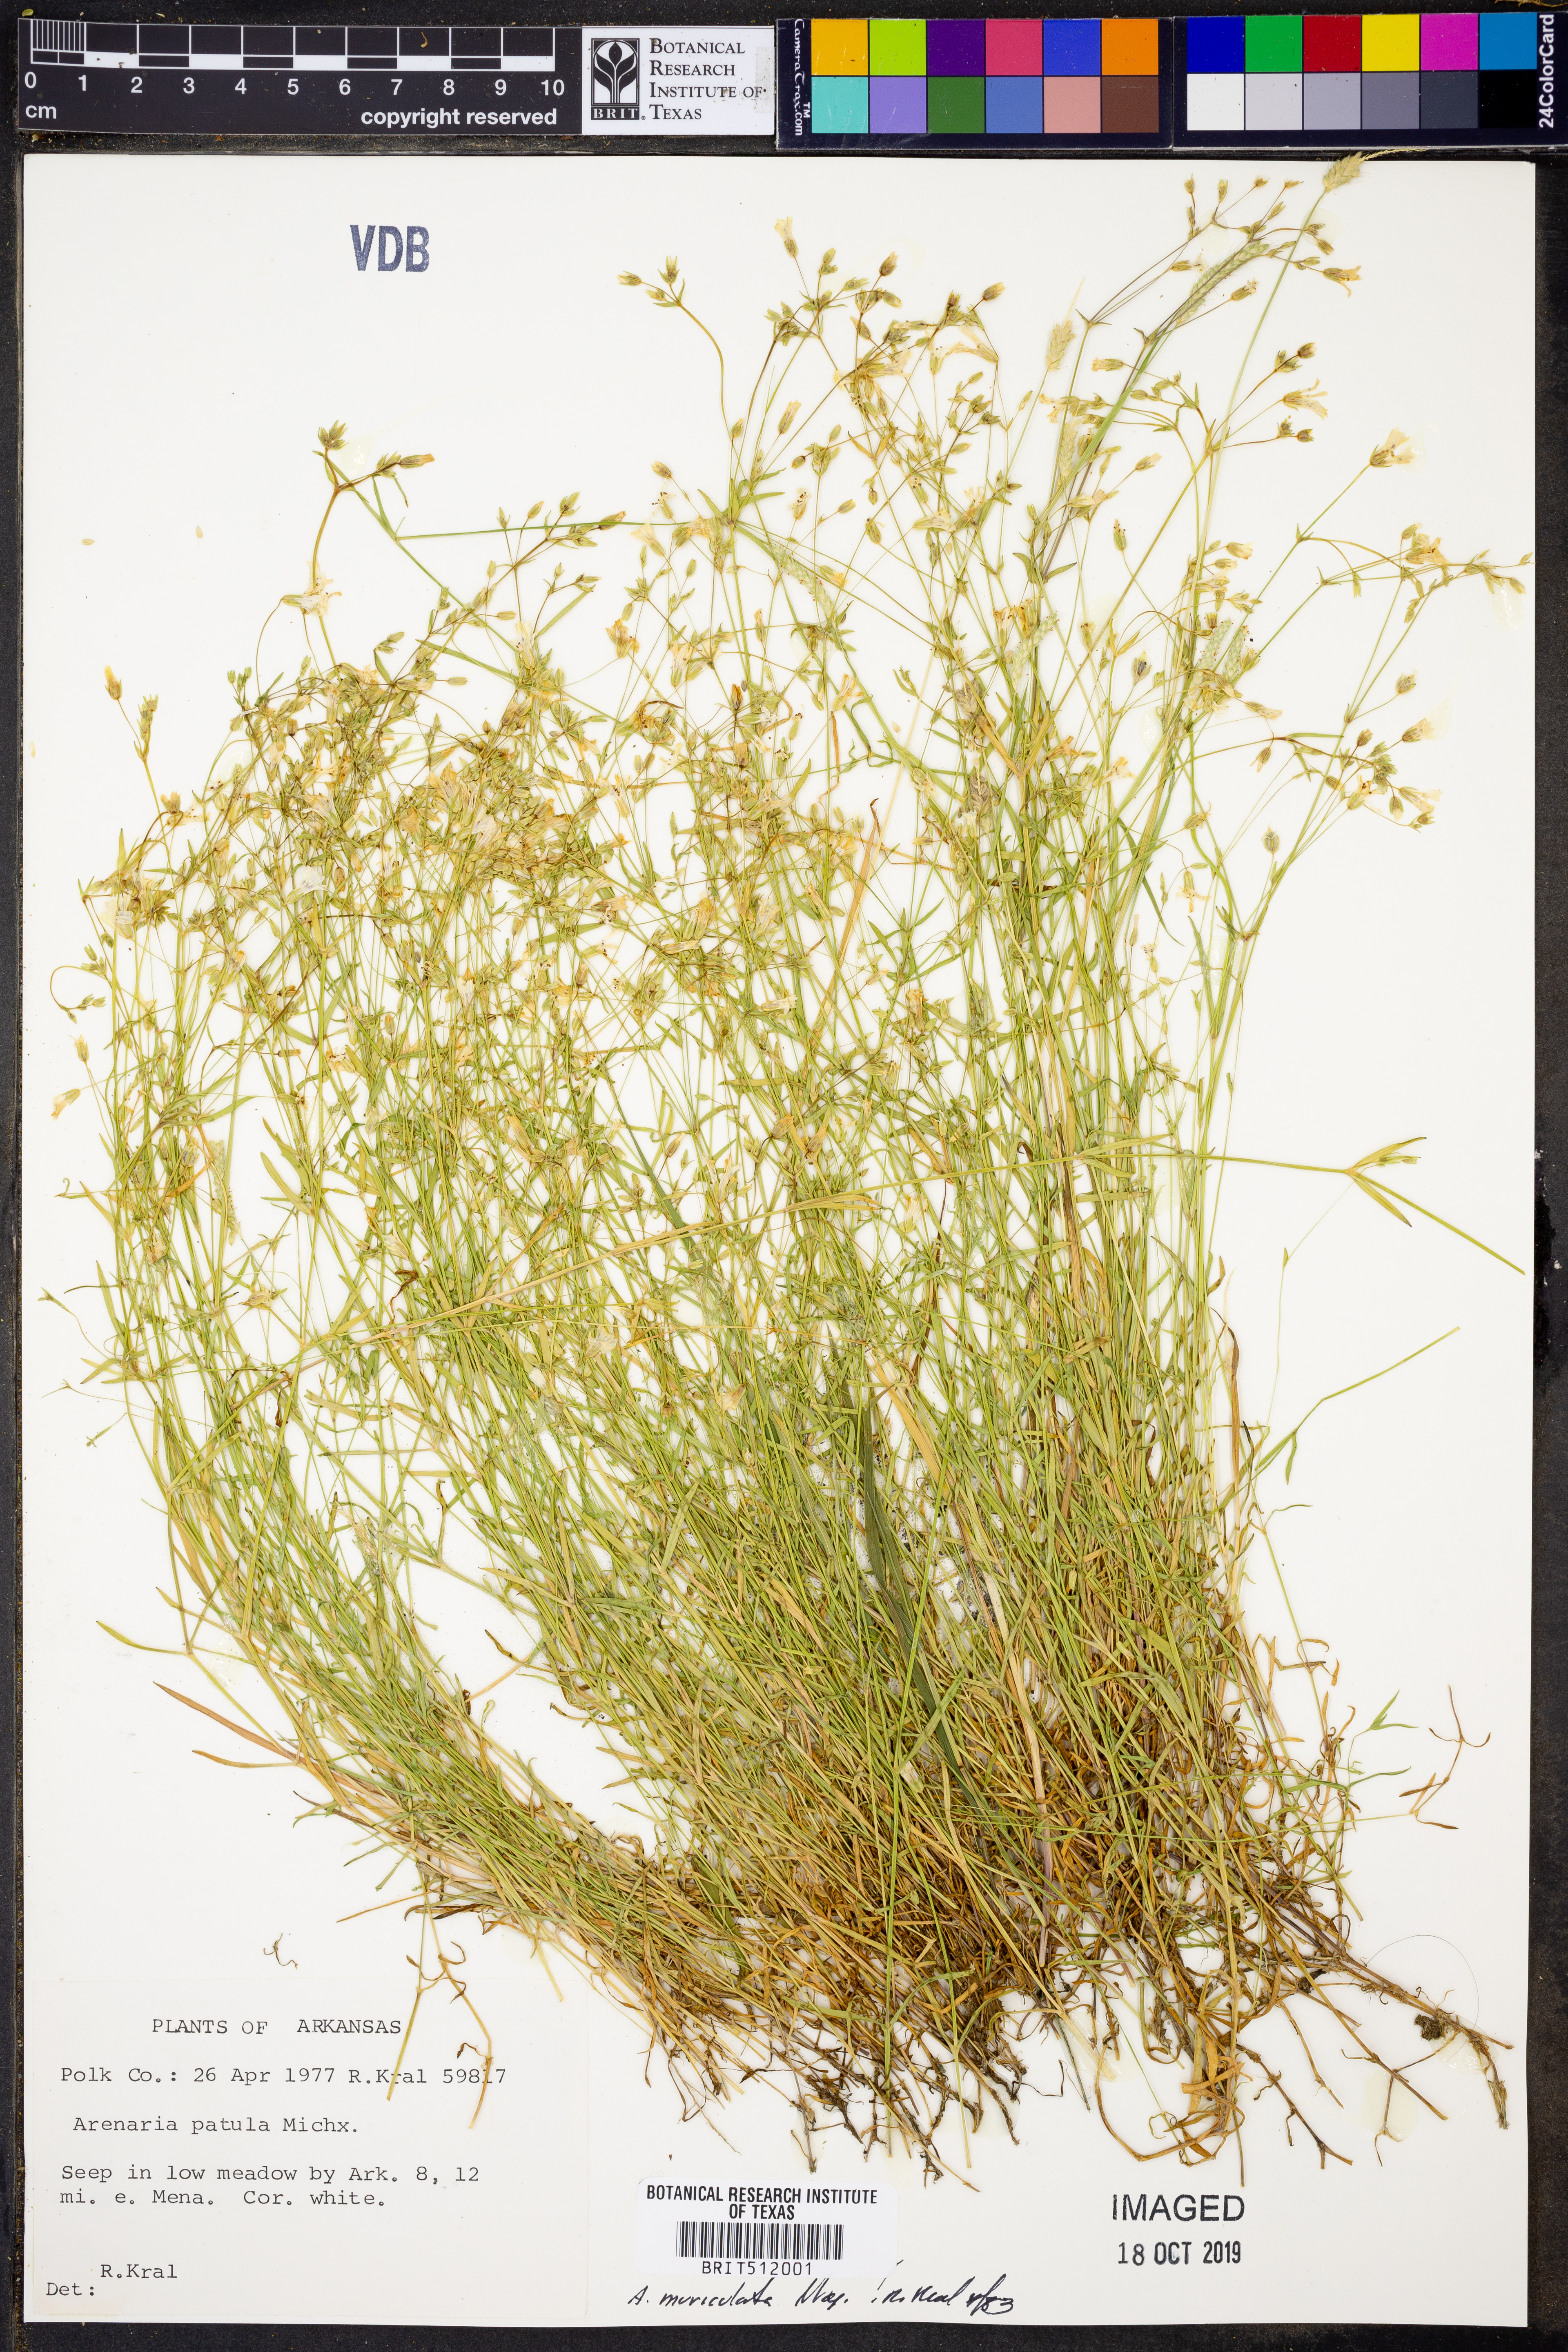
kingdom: Plantae
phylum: Tracheophyta
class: Magnoliopsida
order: Caryophyllales
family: Caryophyllaceae
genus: Mononeuria
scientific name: Mononeuria muscorum
